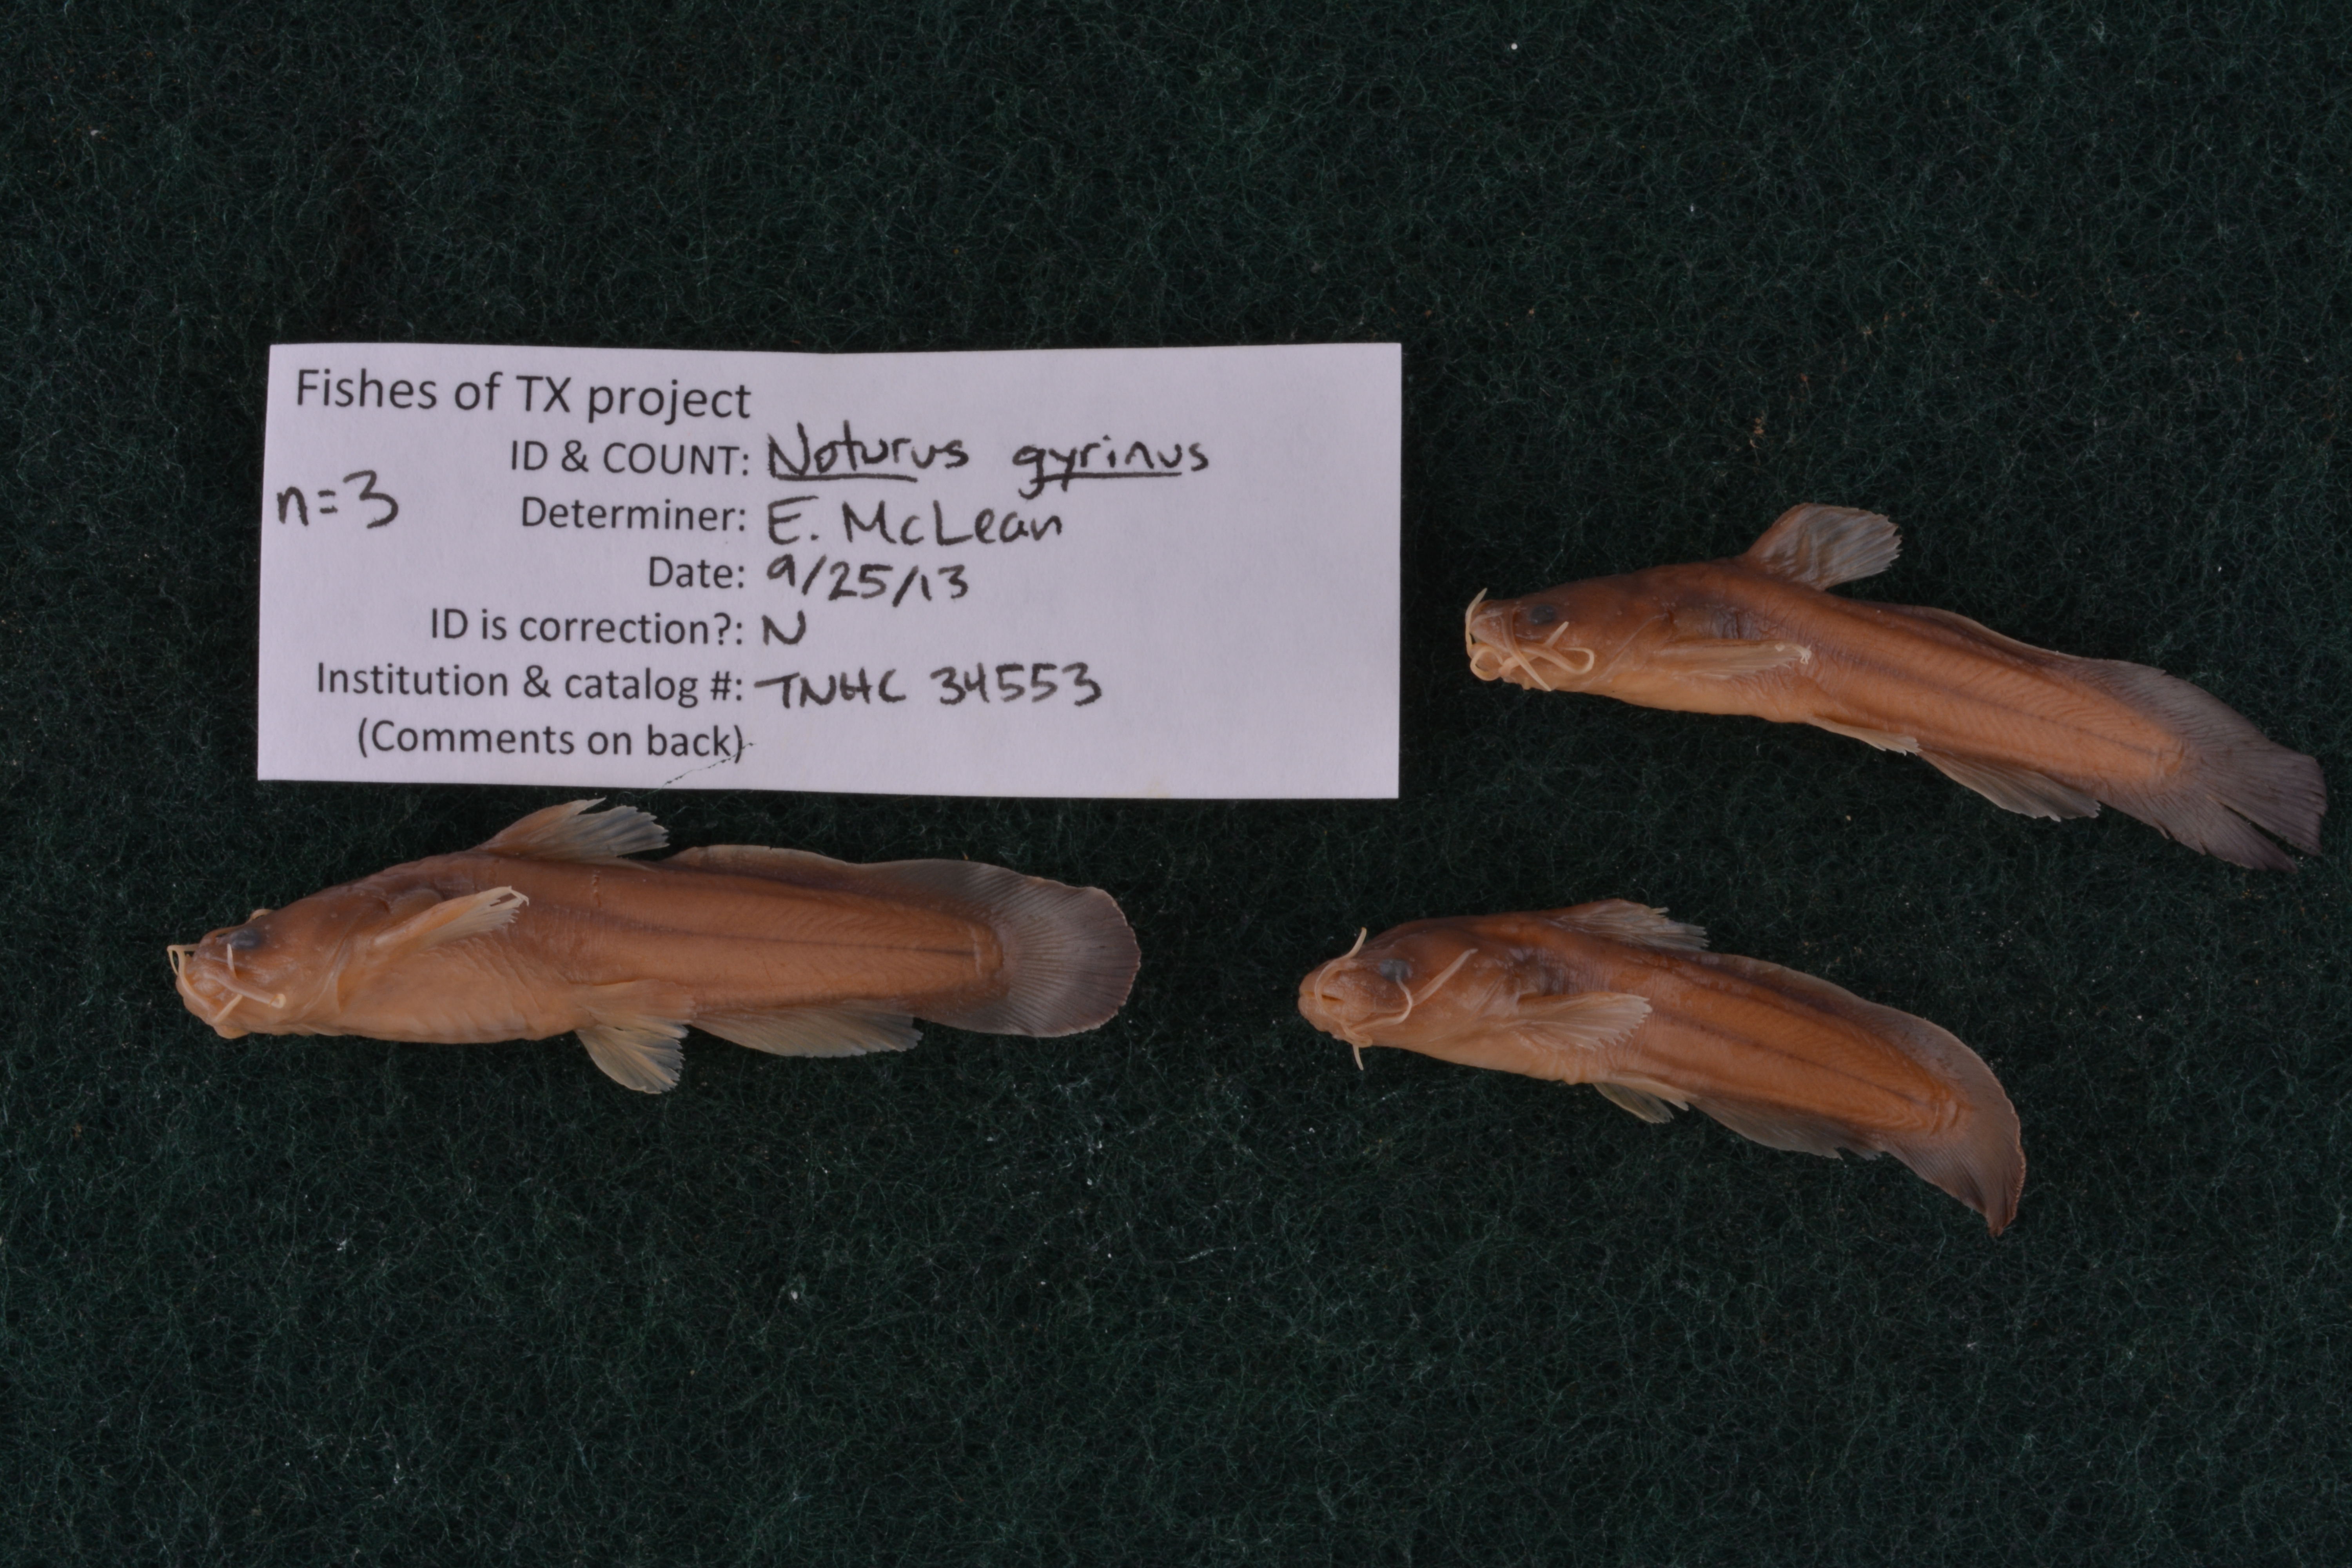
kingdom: Animalia
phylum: Chordata
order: Siluriformes
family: Ictaluridae
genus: Noturus
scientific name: Noturus gyrinus
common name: Tadpole madtom
